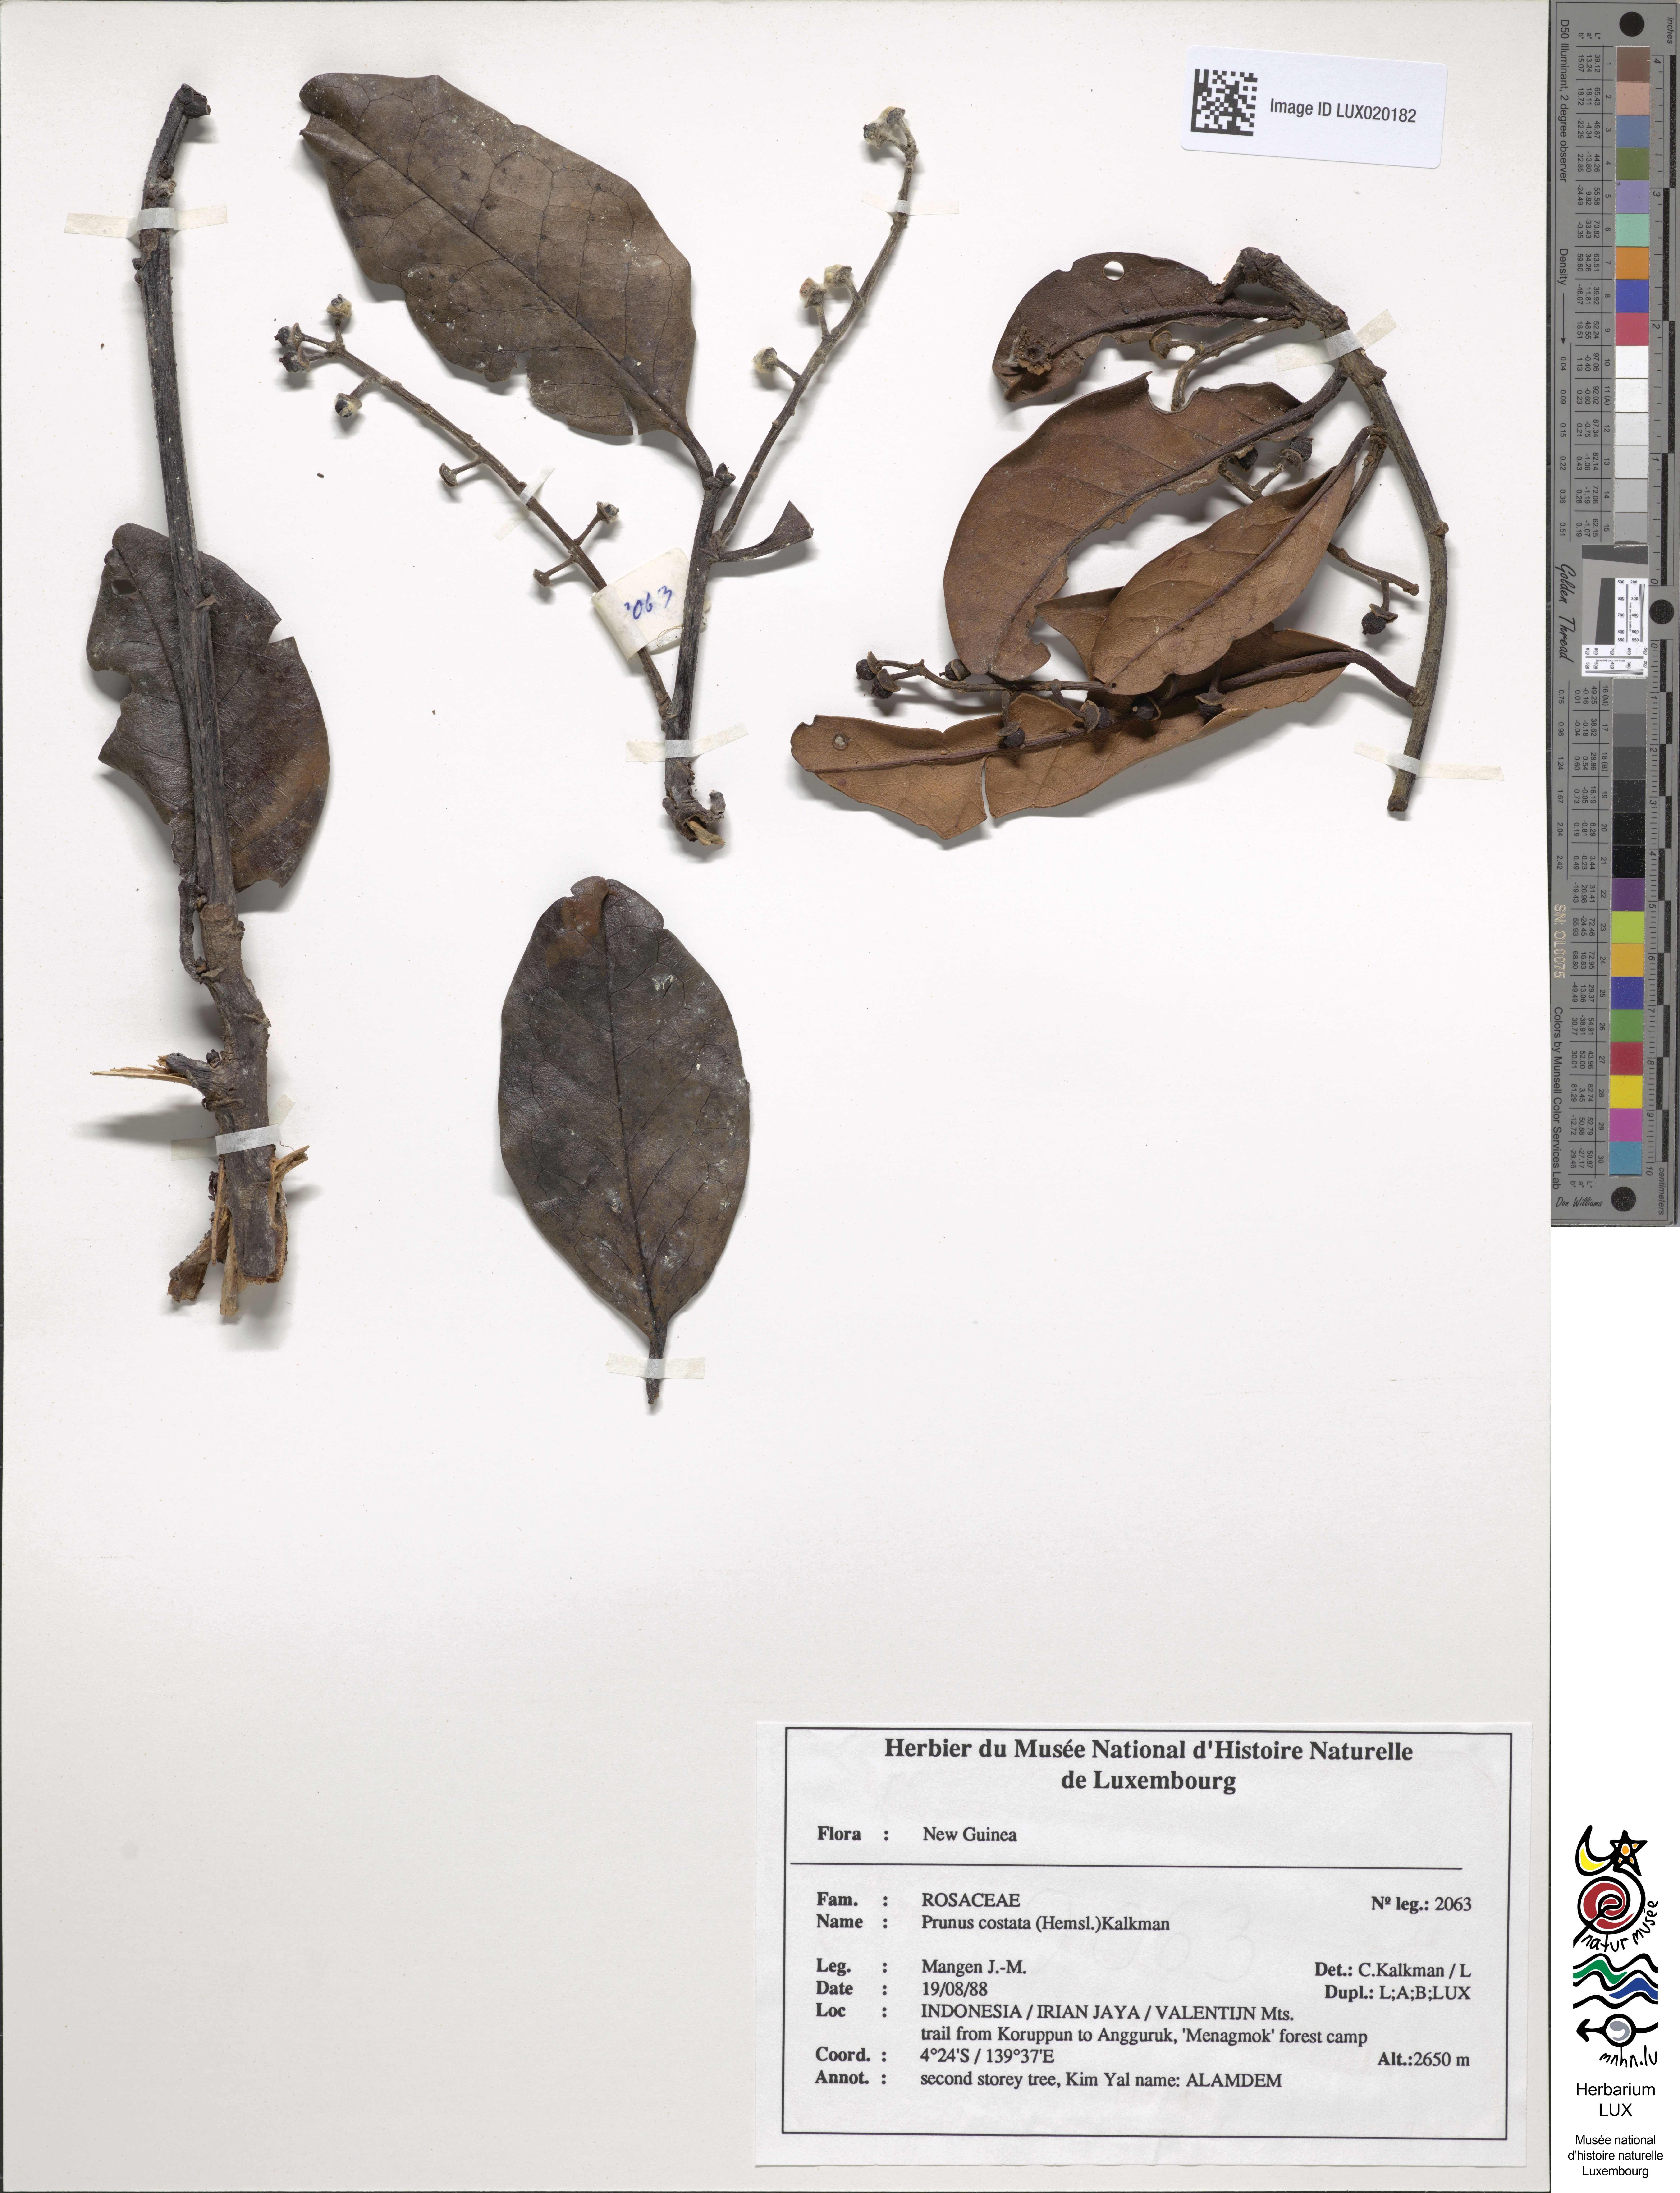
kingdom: Plantae
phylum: Tracheophyta
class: Magnoliopsida
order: Rosales
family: Rosaceae
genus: Prunus
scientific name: Prunus costata
